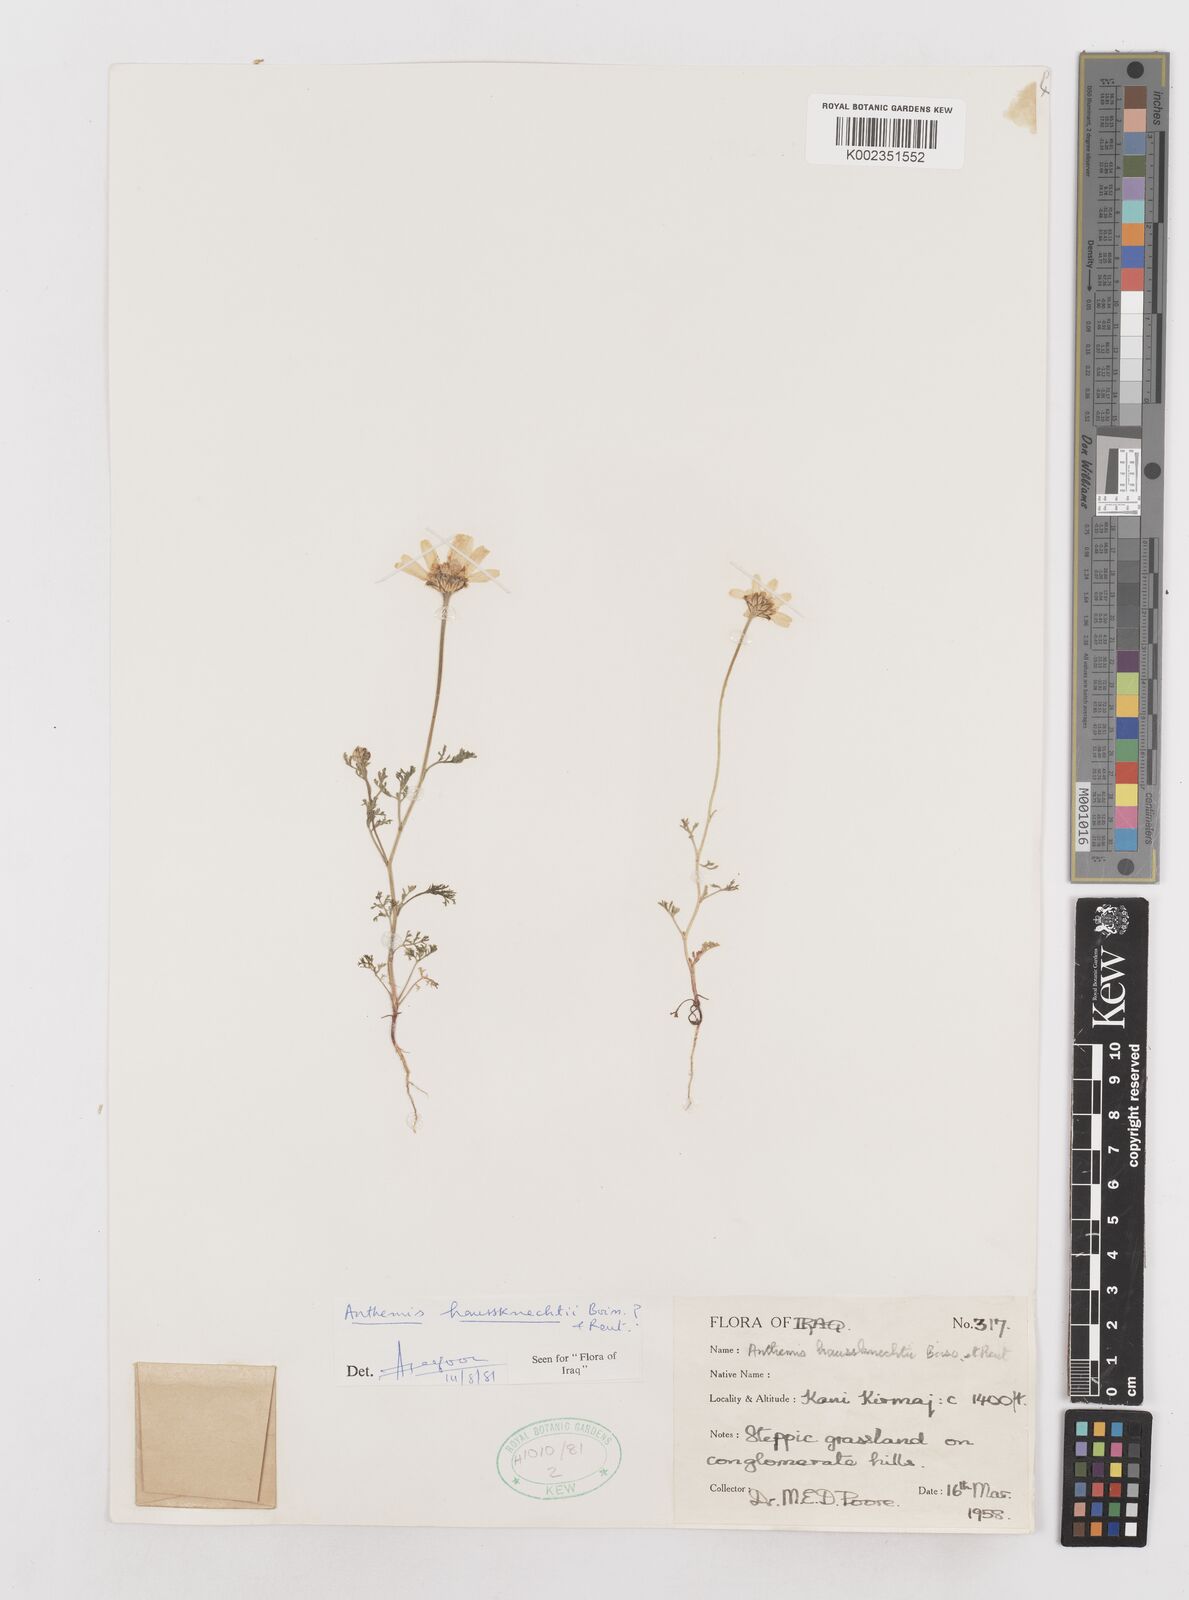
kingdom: Plantae
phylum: Tracheophyta
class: Magnoliopsida
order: Asterales
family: Asteraceae
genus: Anthemis
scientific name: Anthemis haussknechtii
